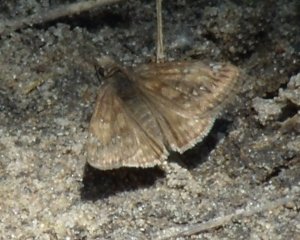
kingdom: Animalia
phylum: Arthropoda
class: Insecta
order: Lepidoptera
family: Hesperiidae
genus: Gesta
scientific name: Gesta
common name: Columbine Duskywing
